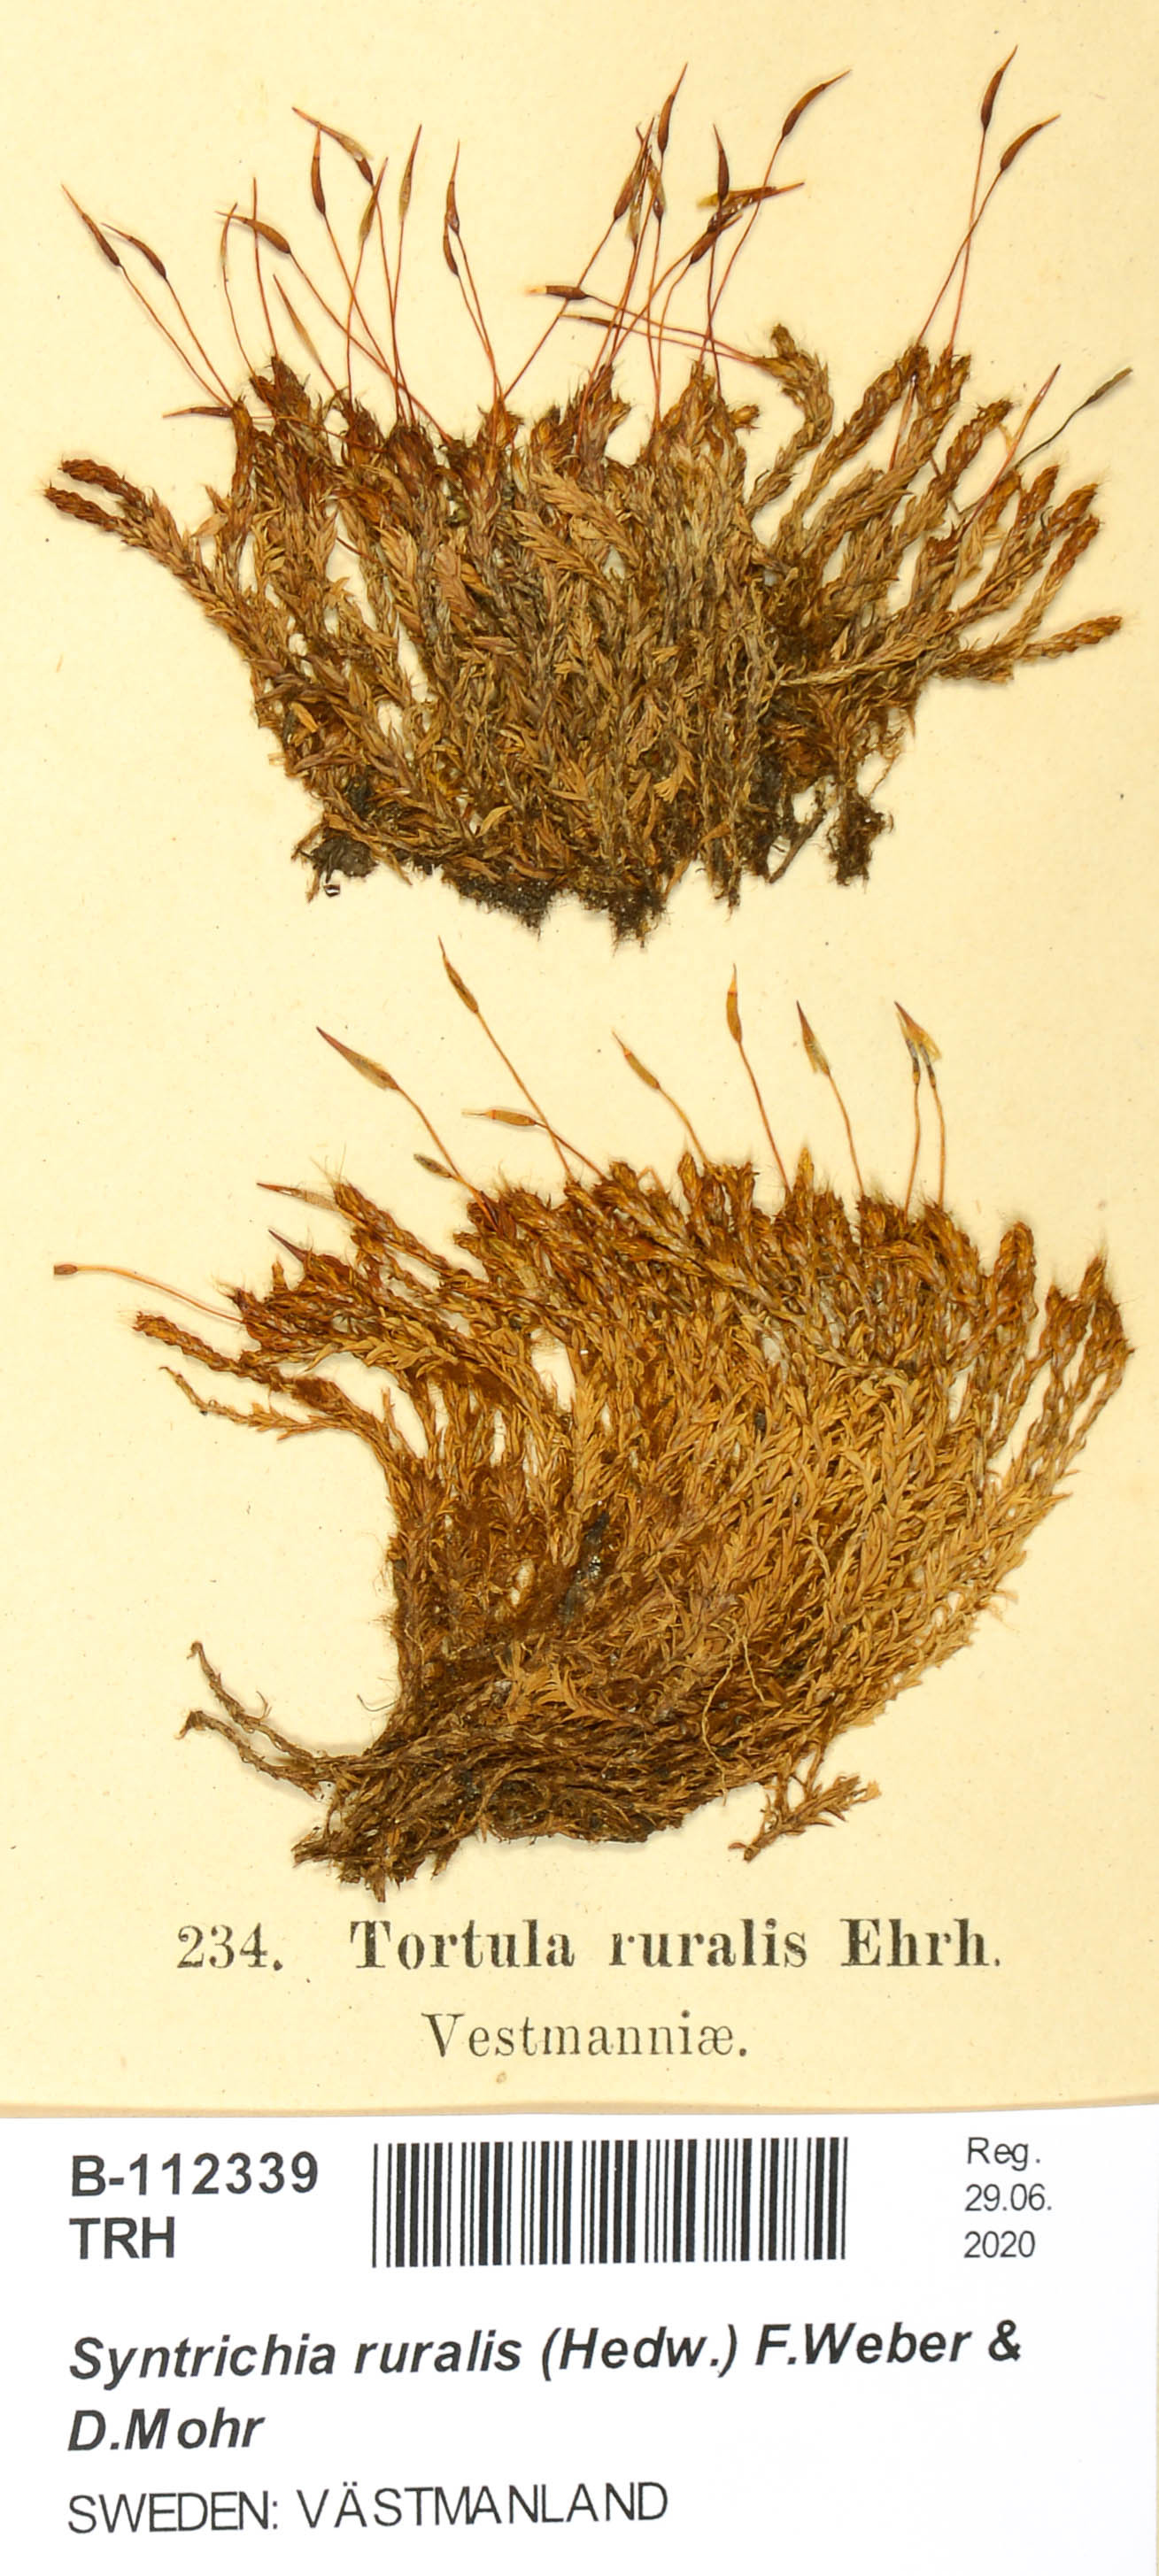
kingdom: Plantae
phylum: Bryophyta
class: Bryopsida
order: Pottiales
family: Pottiaceae
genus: Syntrichia
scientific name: Syntrichia ruralis
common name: Sidewalk screw moss
